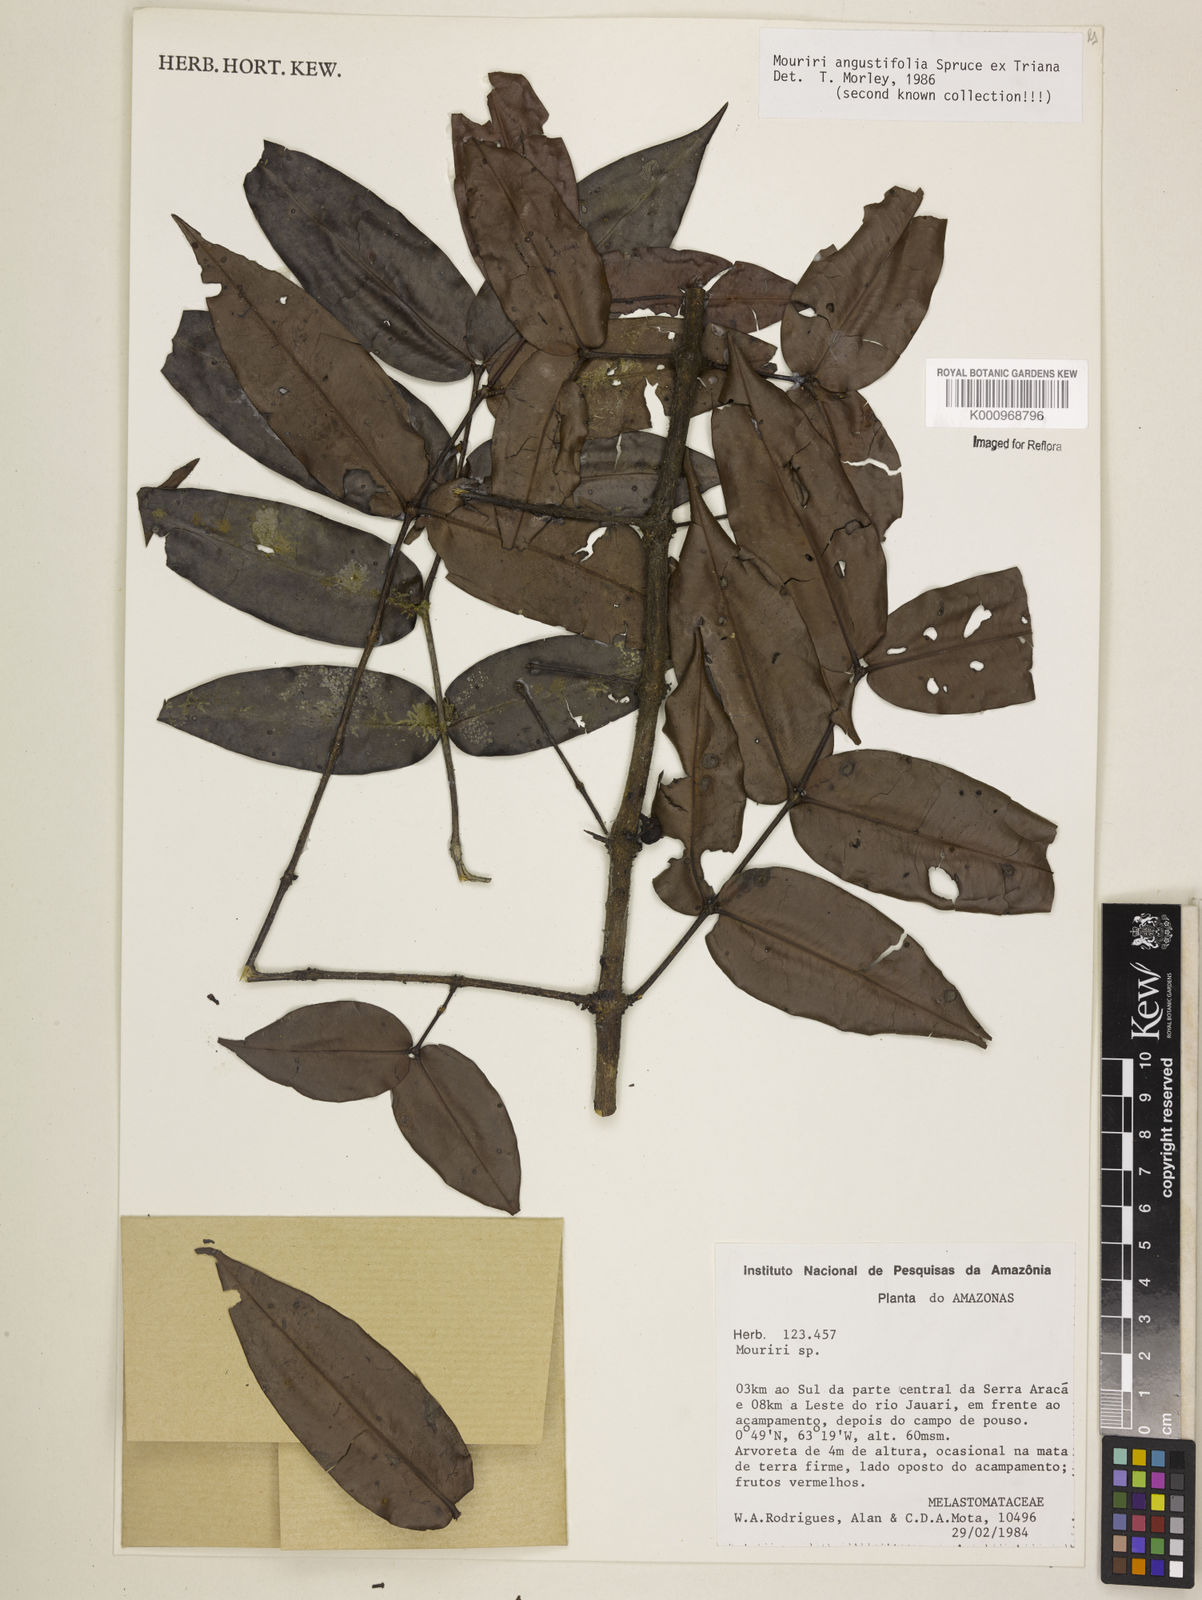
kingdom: Plantae
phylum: Tracheophyta
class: Magnoliopsida
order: Myrtales
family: Melastomataceae
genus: Mouriri
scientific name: Mouriri angustifolia
